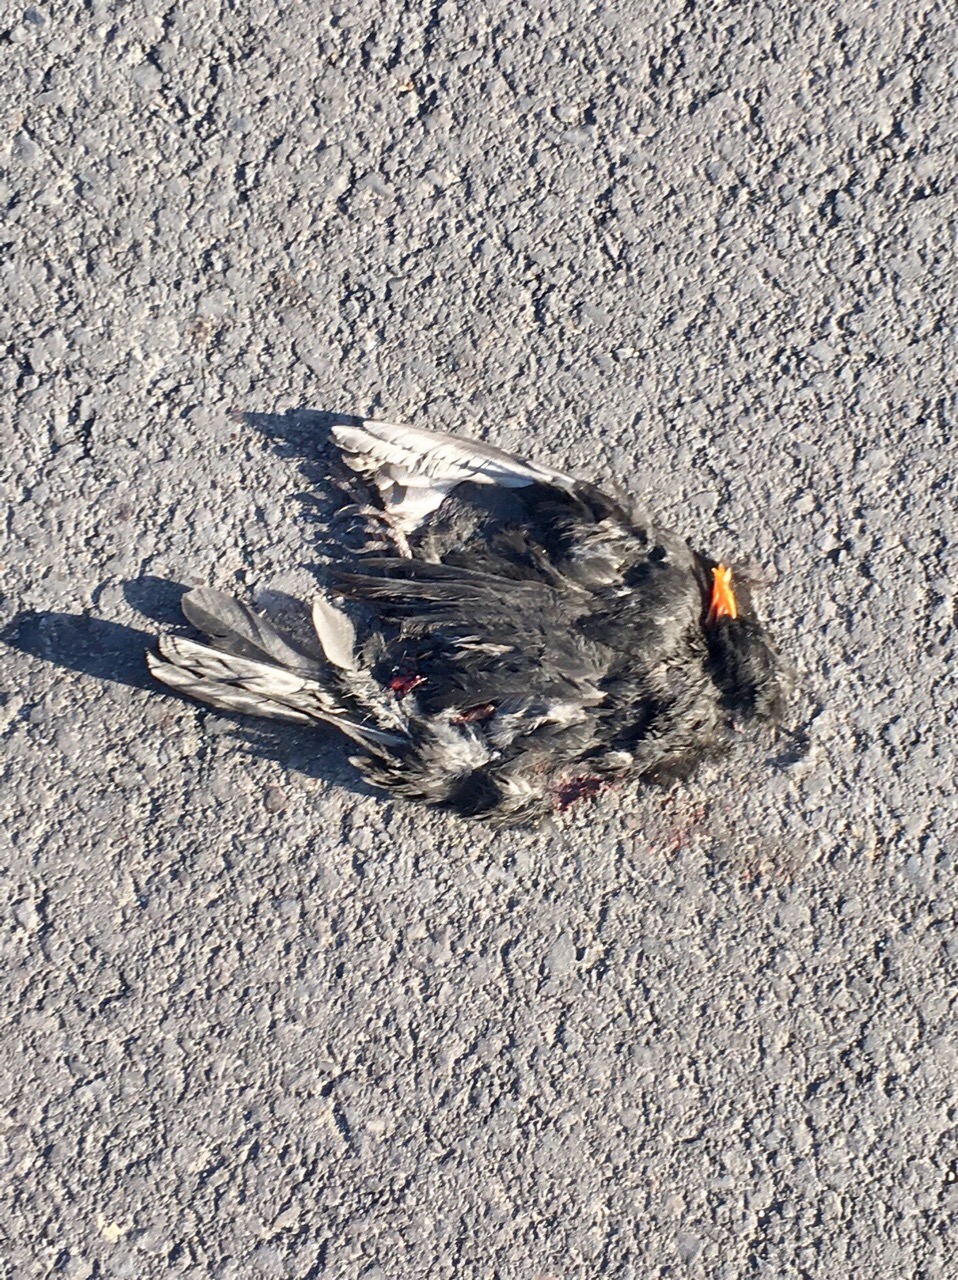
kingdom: Animalia
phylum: Chordata
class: Aves
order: Passeriformes
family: Turdidae
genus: Turdus
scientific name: Turdus merula
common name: Common blackbird
